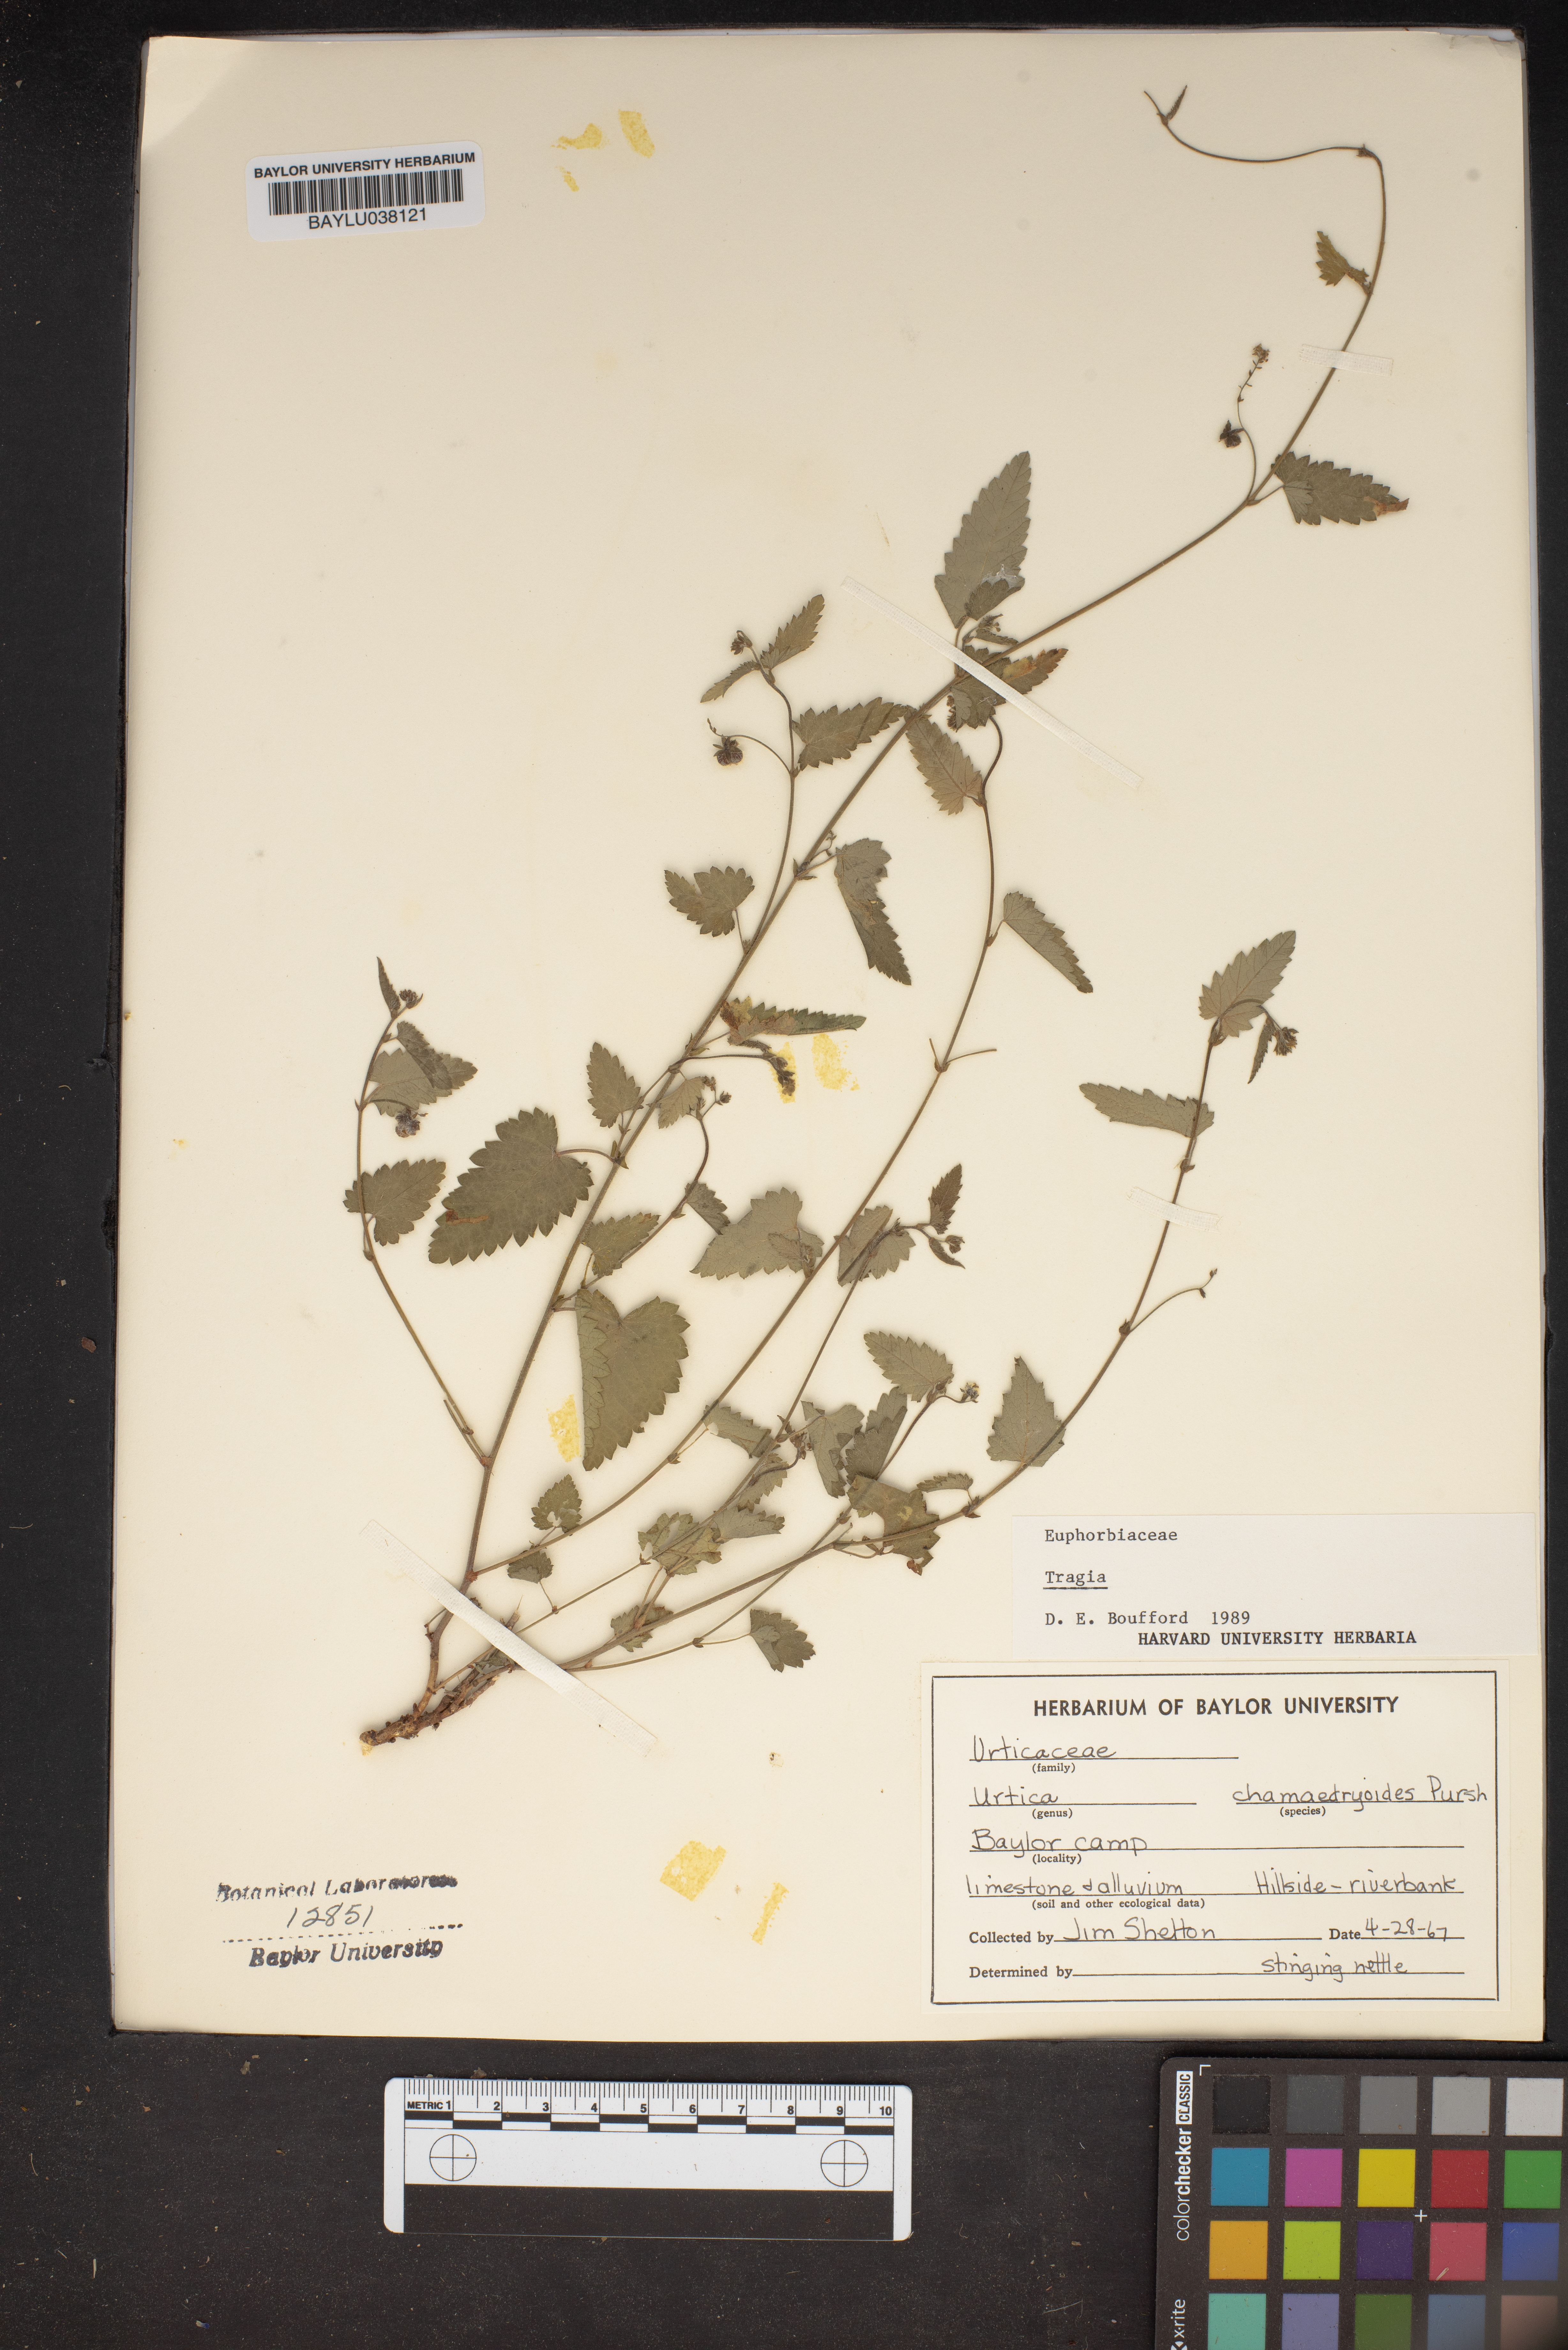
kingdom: Plantae
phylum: Tracheophyta
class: Magnoliopsida
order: Malpighiales
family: Euphorbiaceae
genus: Tragia
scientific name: Tragia
